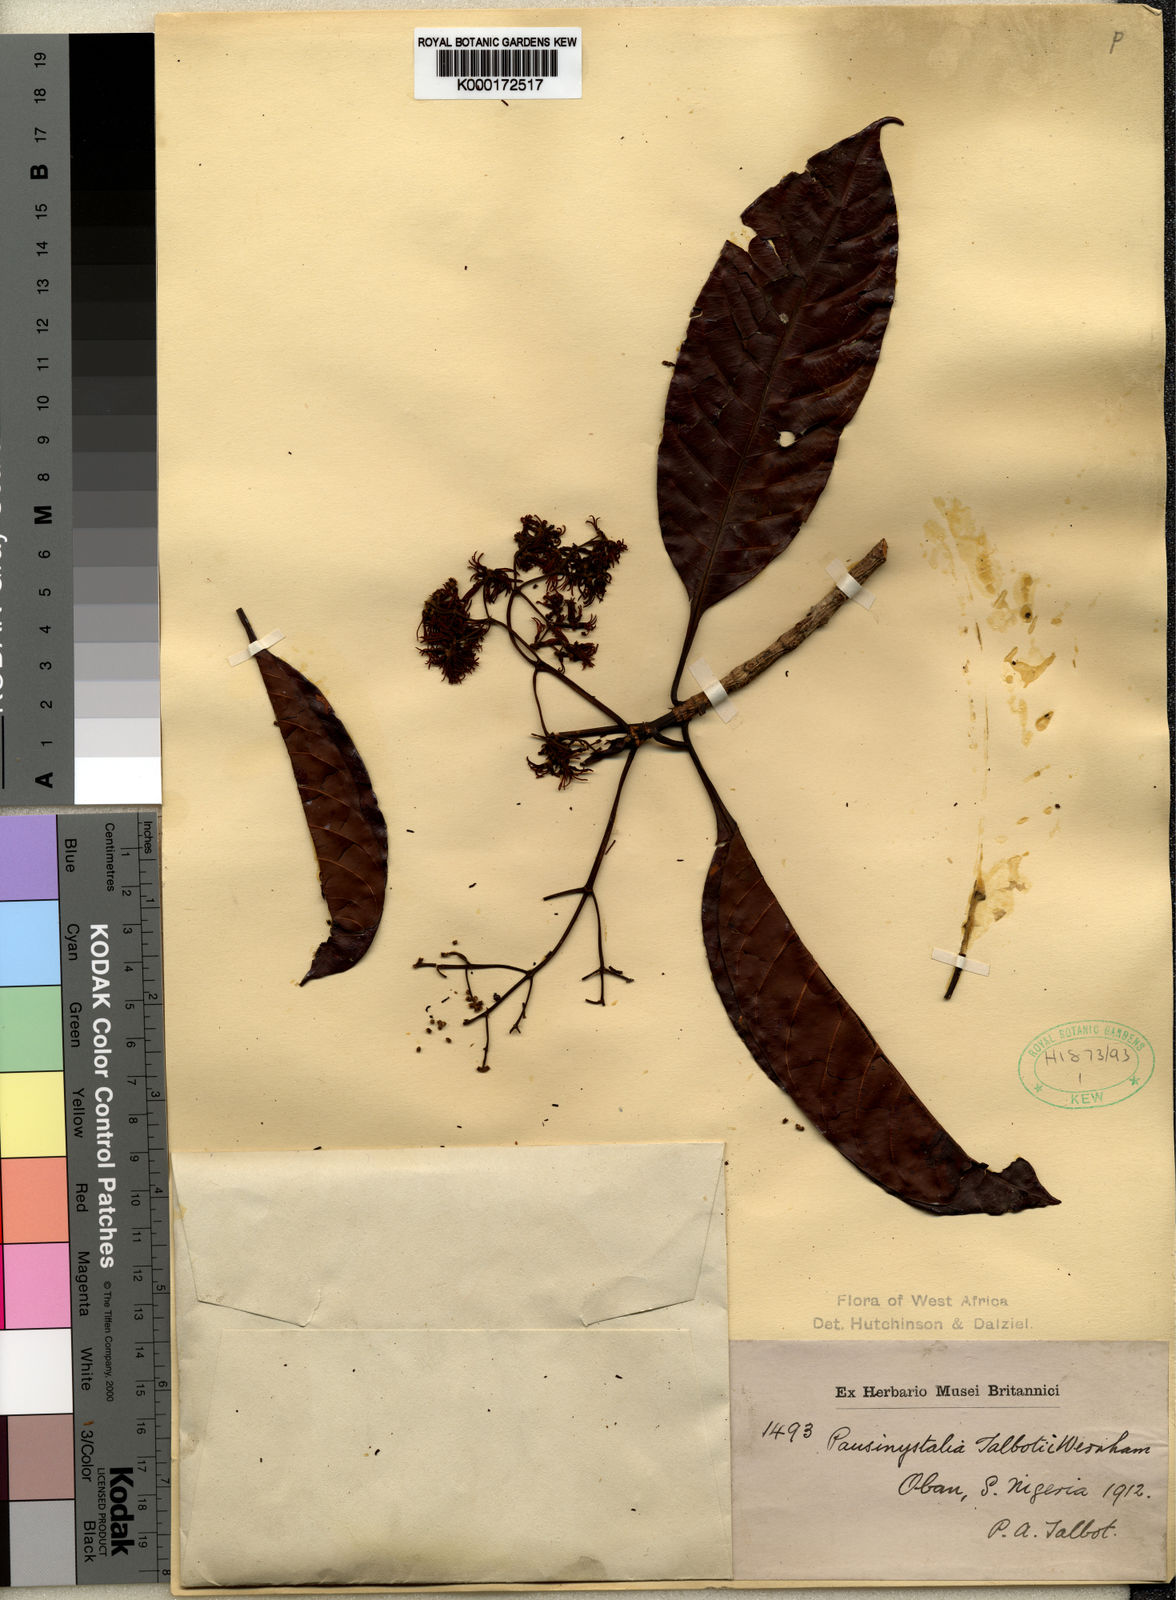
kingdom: Plantae
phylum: Tracheophyta
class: Magnoliopsida
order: Gentianales
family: Rubiaceae
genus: Corynanthe
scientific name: Corynanthe talbotii
